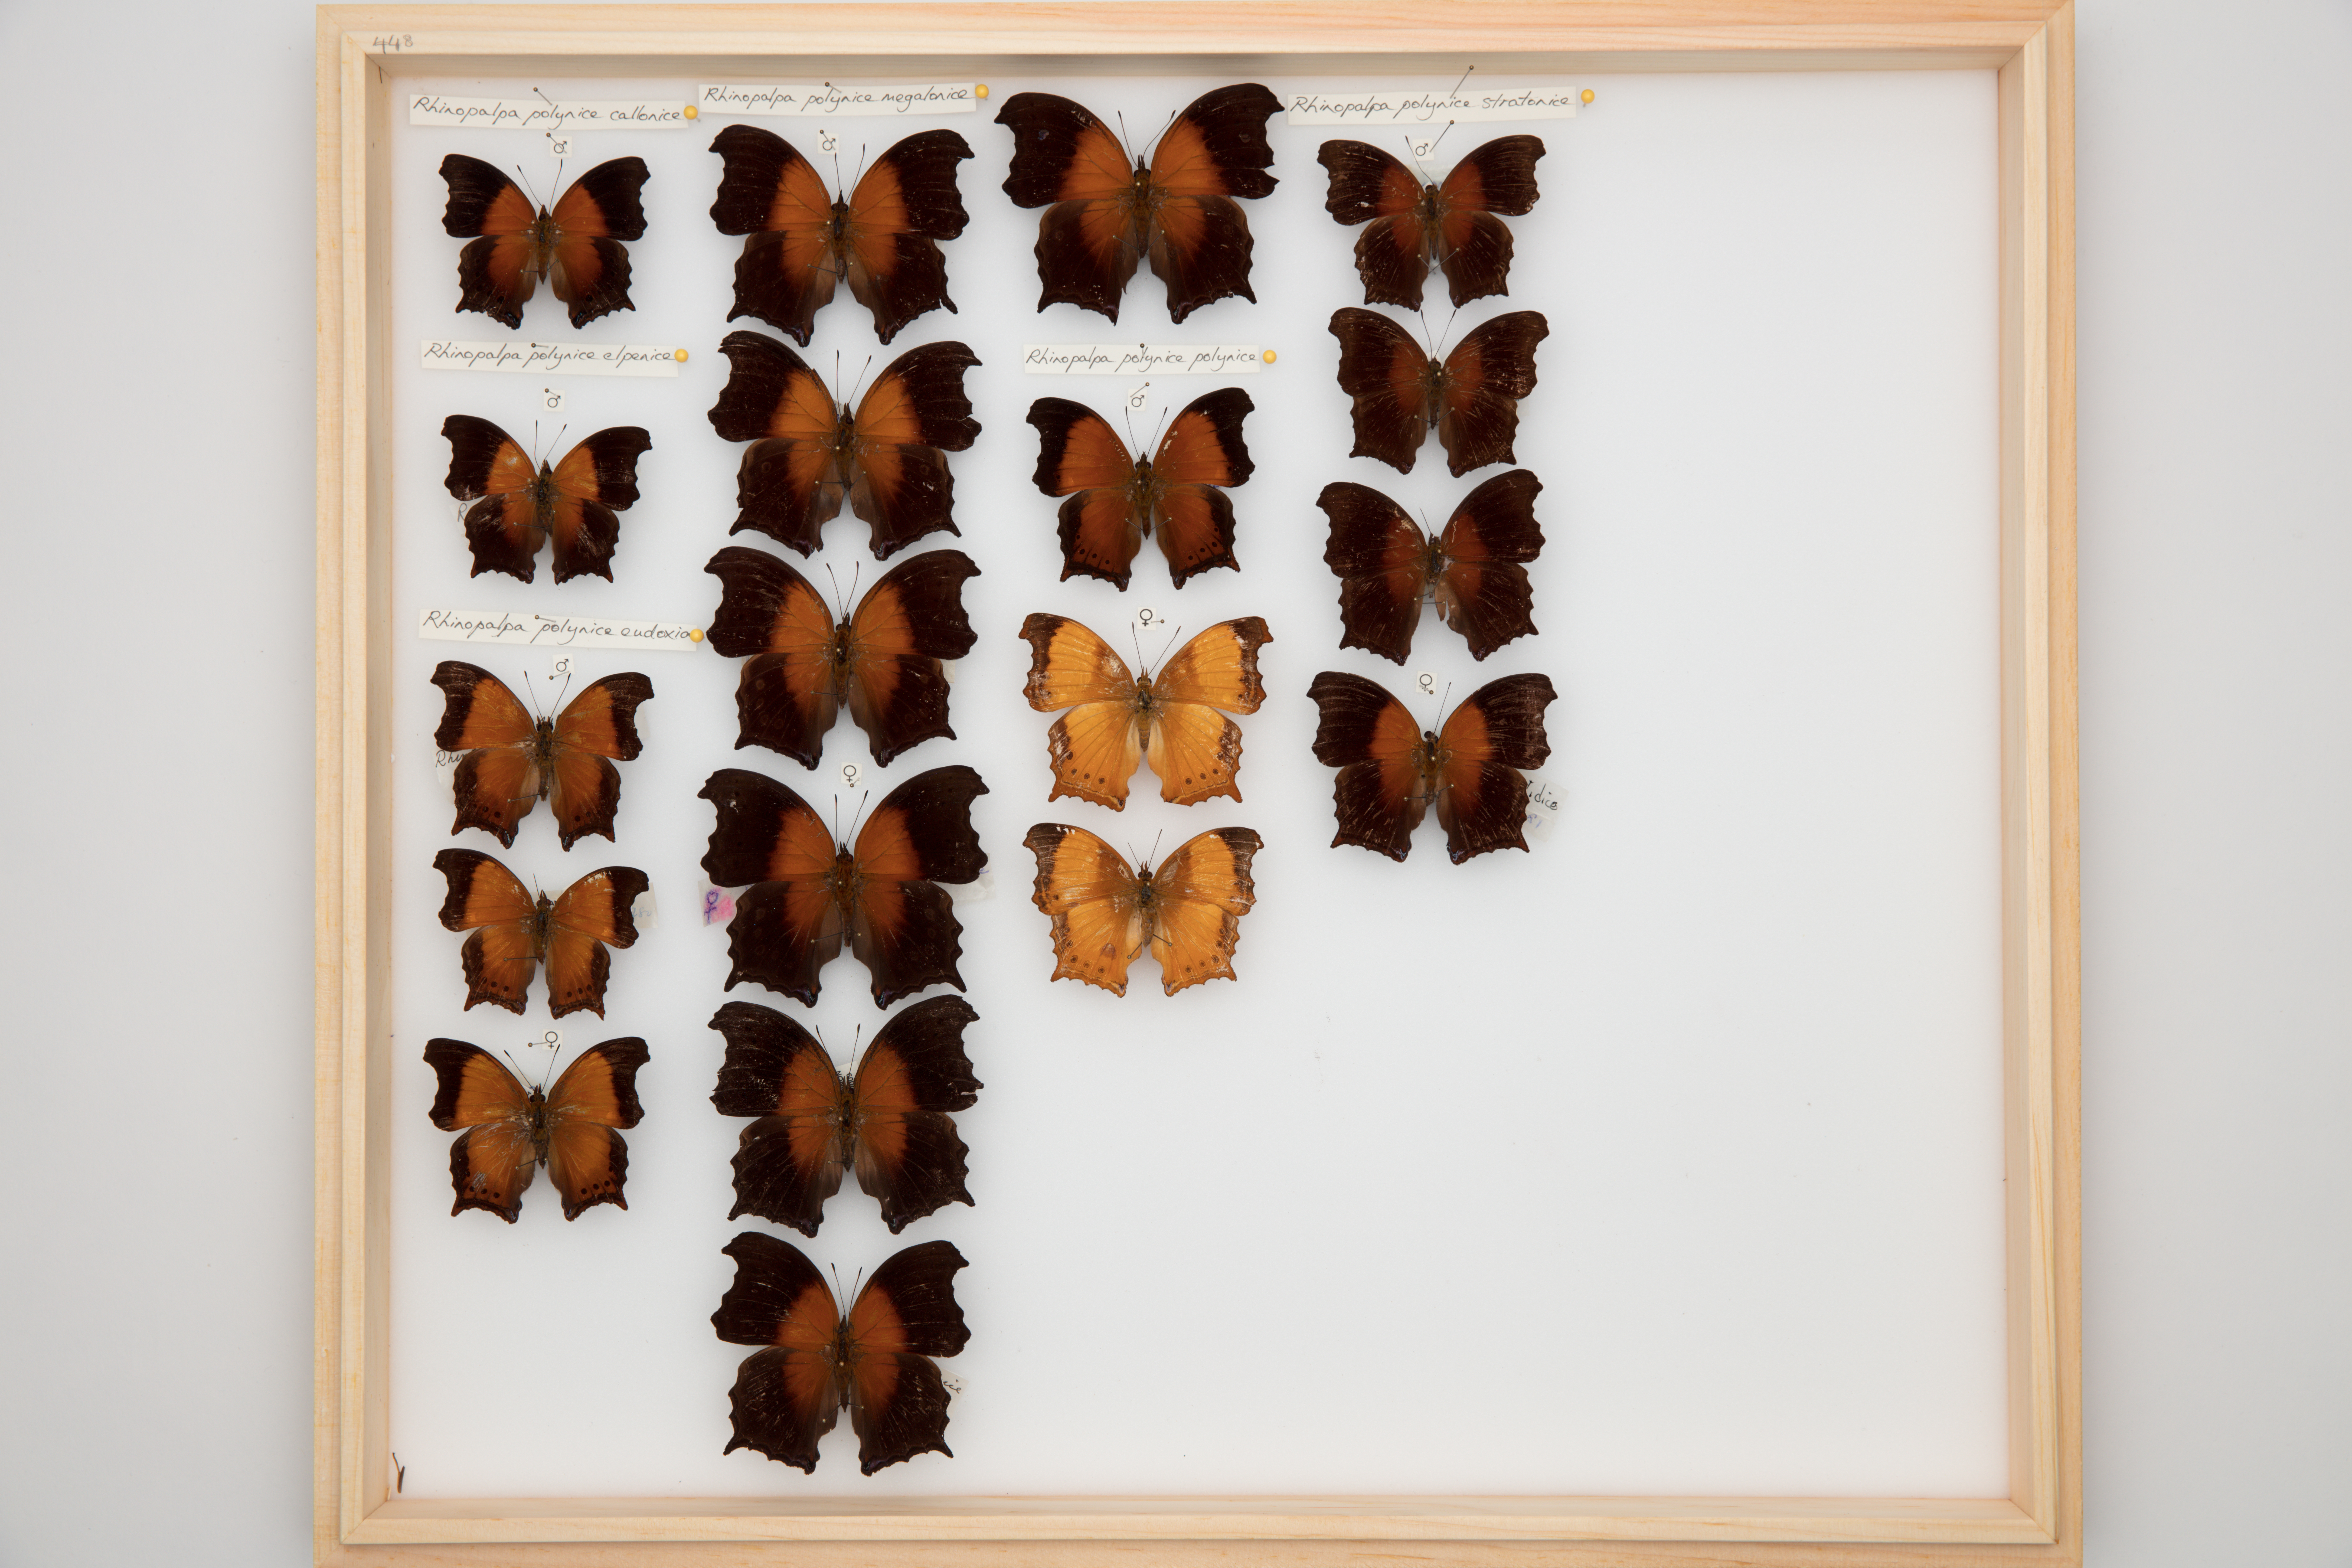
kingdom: Animalia
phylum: Arthropoda
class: Insecta
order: Lepidoptera
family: Nymphalidae
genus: Rhinopalpa
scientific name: Rhinopalpa polynice
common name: Wizard
